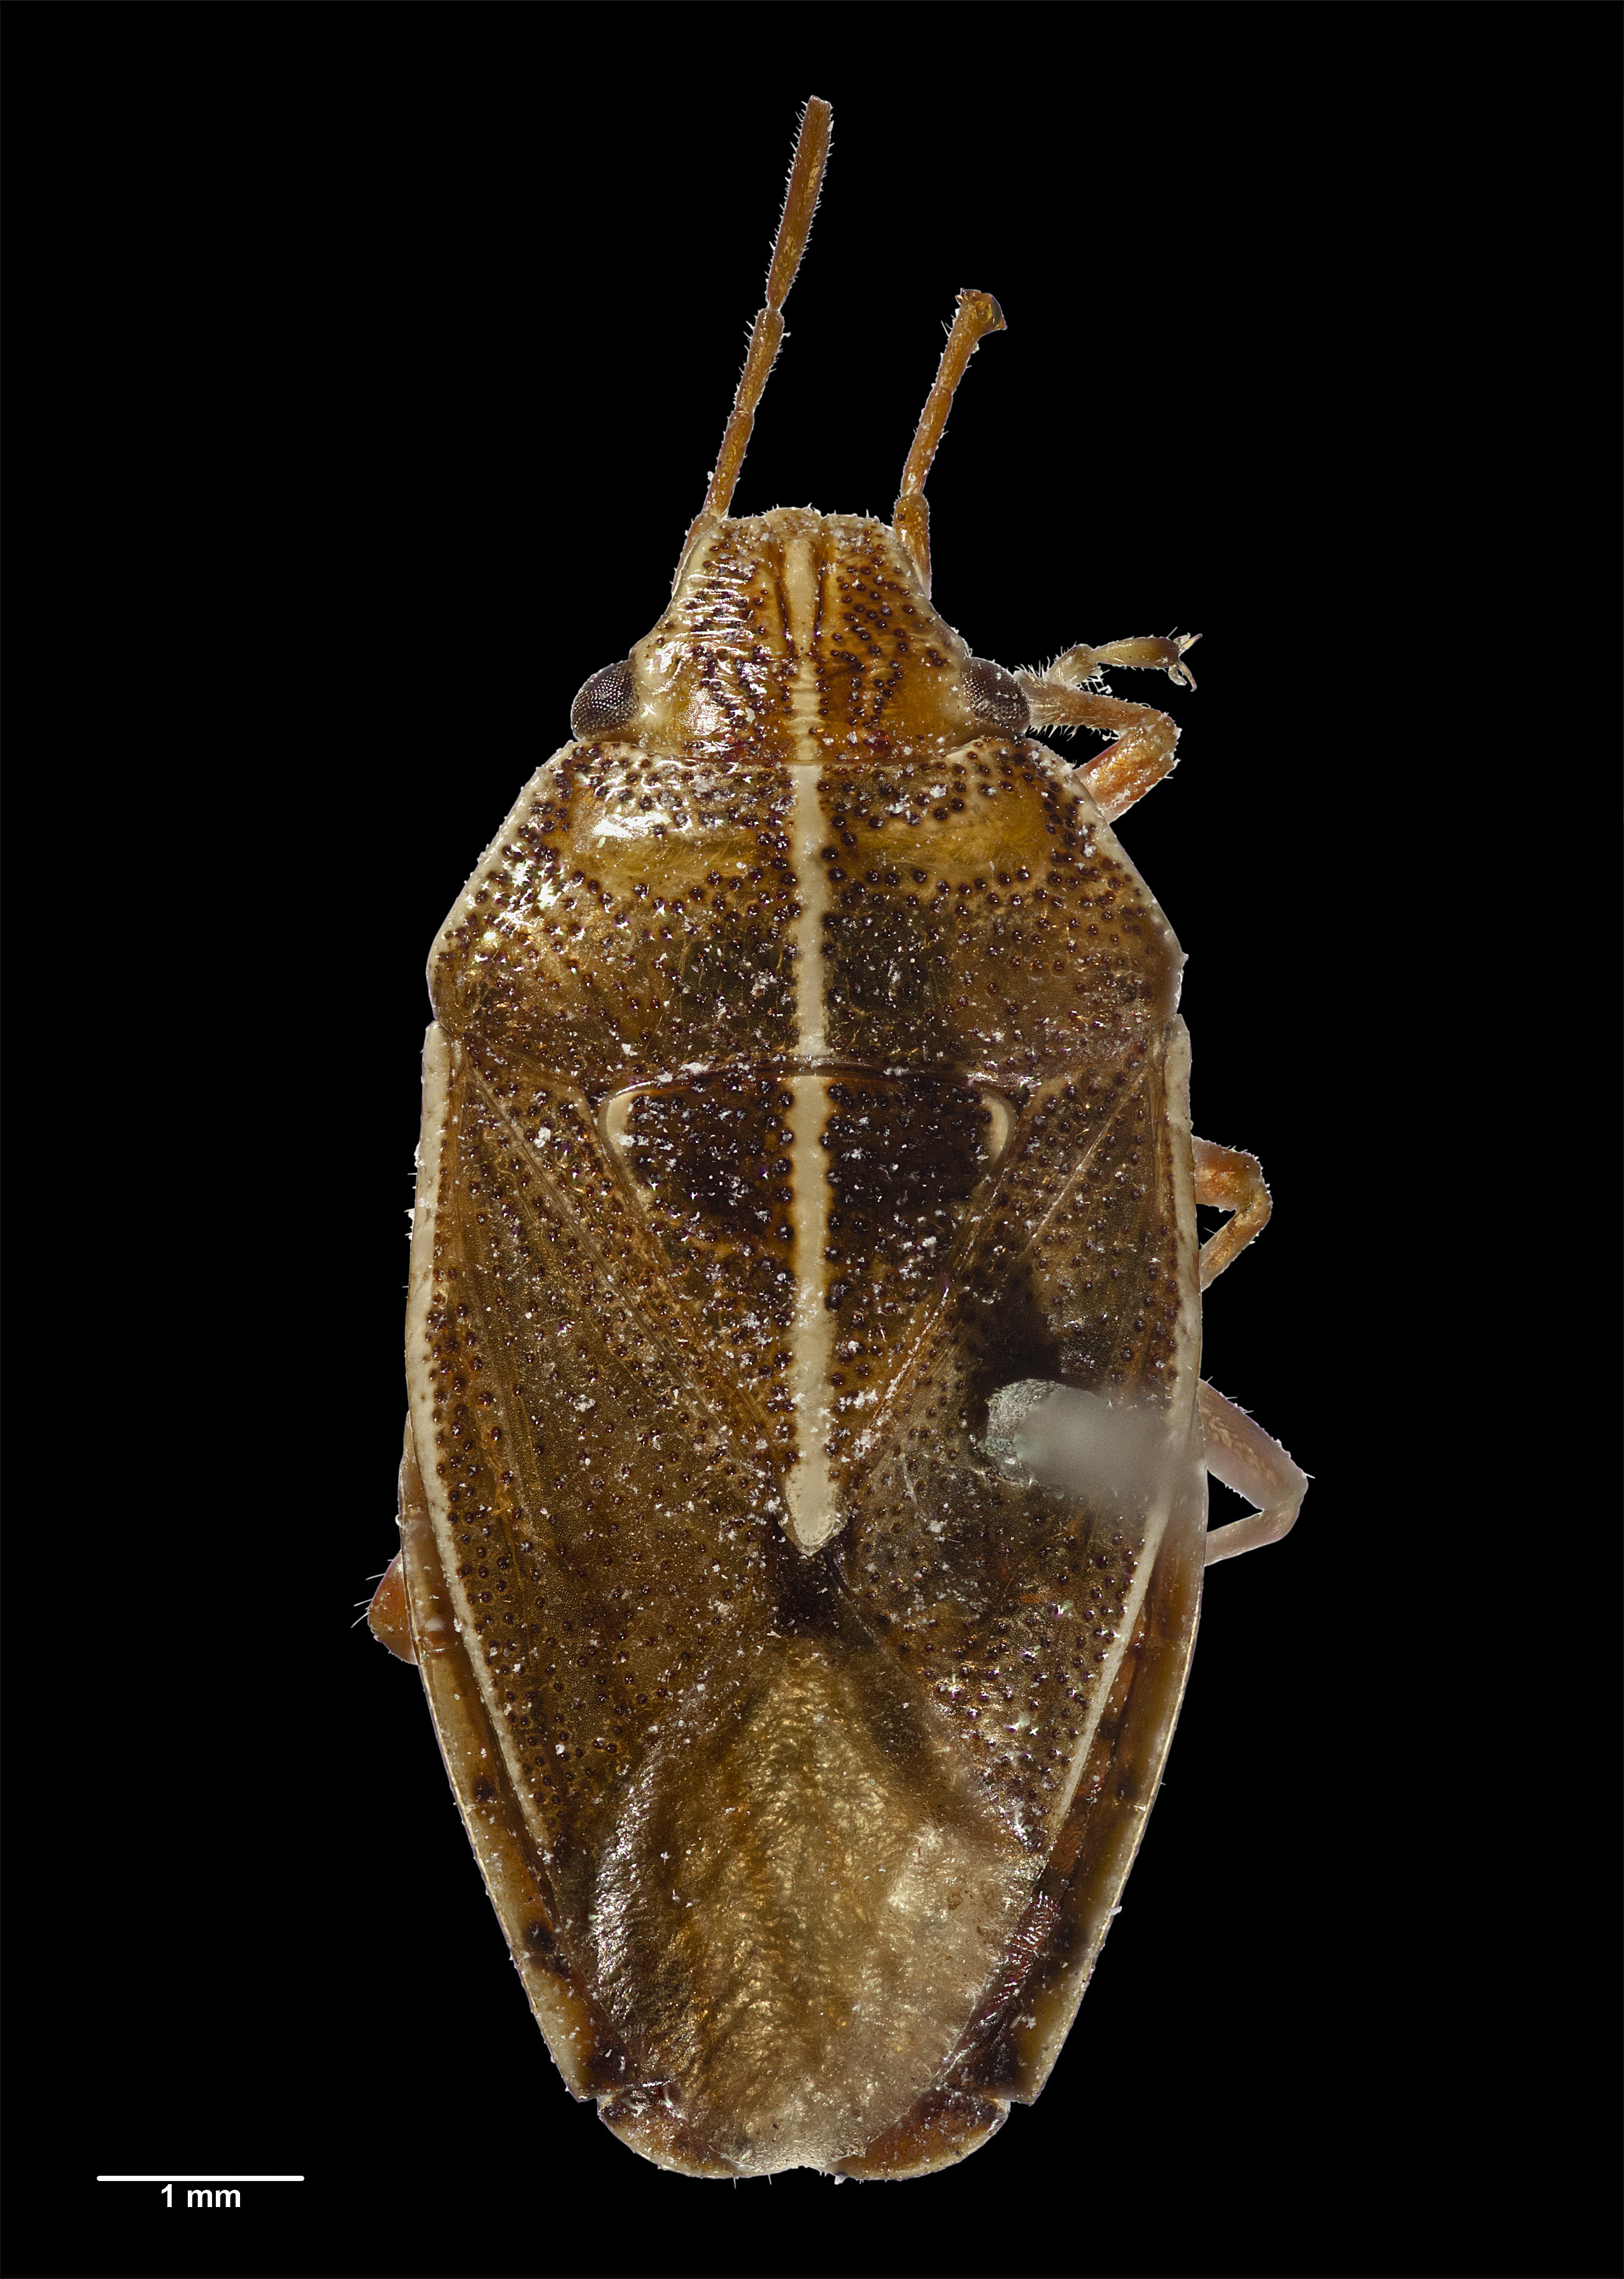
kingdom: Animalia
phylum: Arthropoda
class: Insecta
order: Hemiptera
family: Acanthosomatidae
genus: Rhopalimorpha
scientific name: Rhopalimorpha lineolaris
